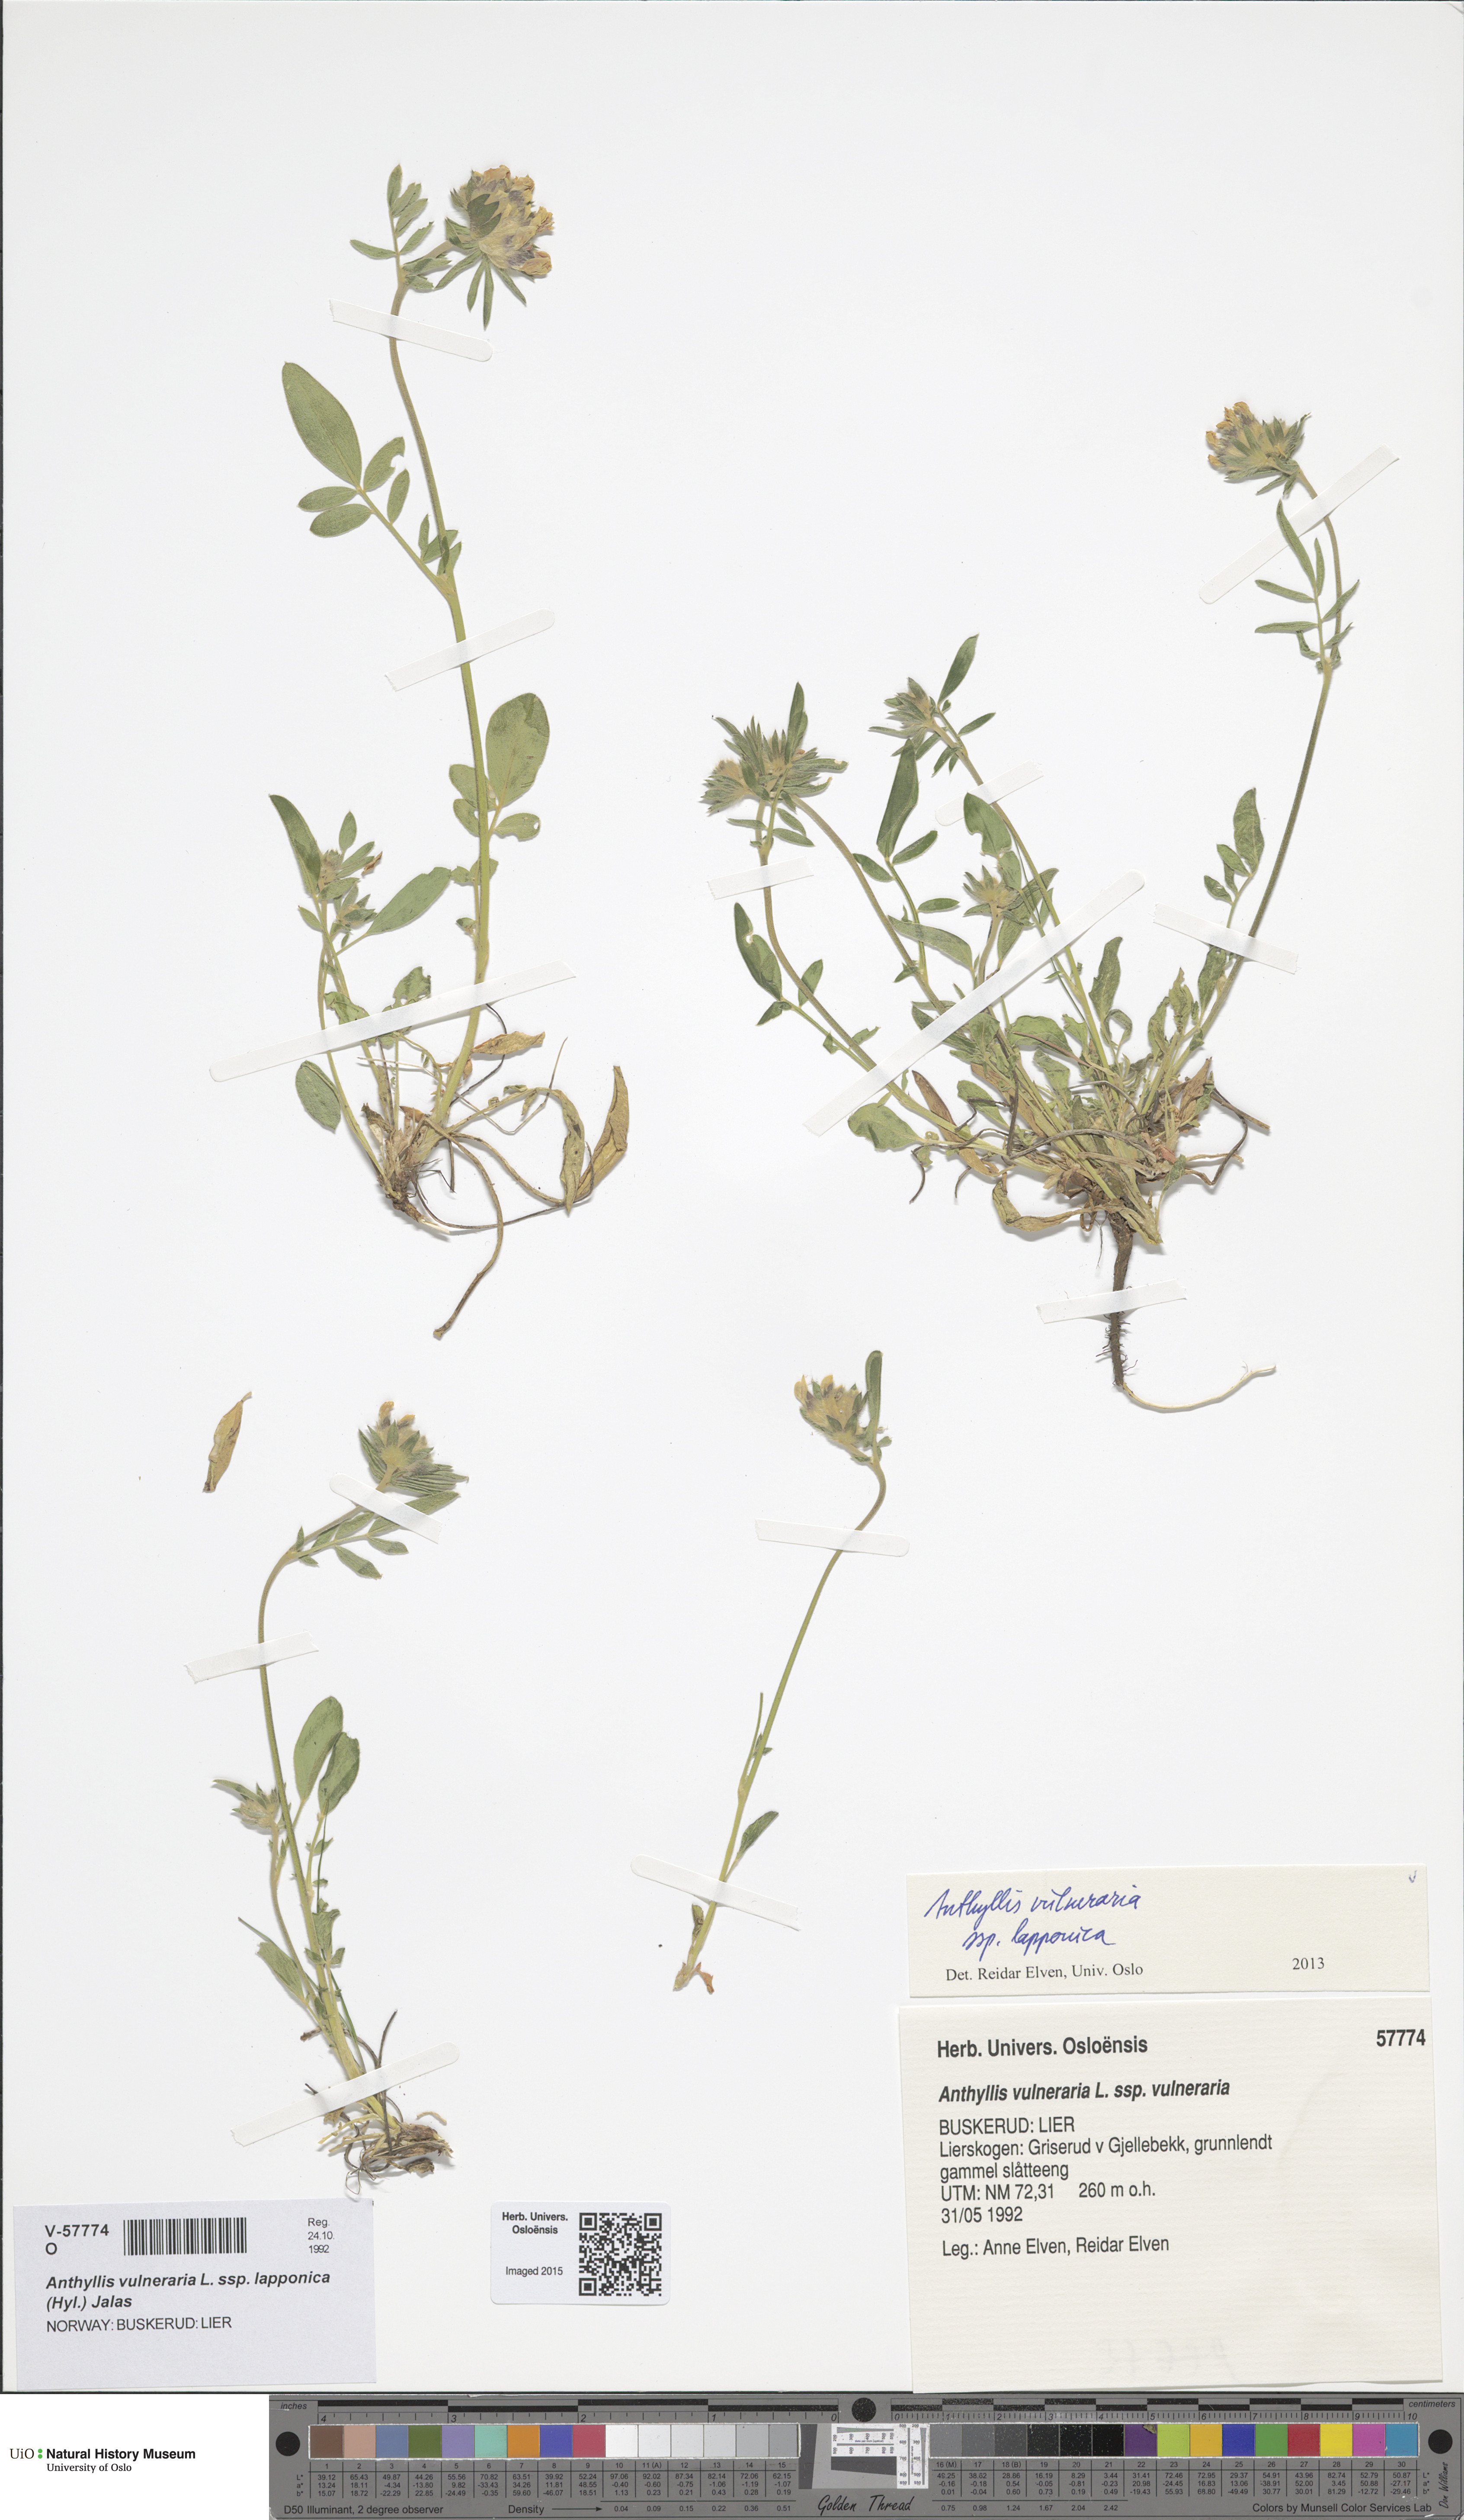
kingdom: Plantae
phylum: Tracheophyta
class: Magnoliopsida
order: Fabales
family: Fabaceae
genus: Anthyllis
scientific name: Anthyllis vulneraria
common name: Kidney vetch
